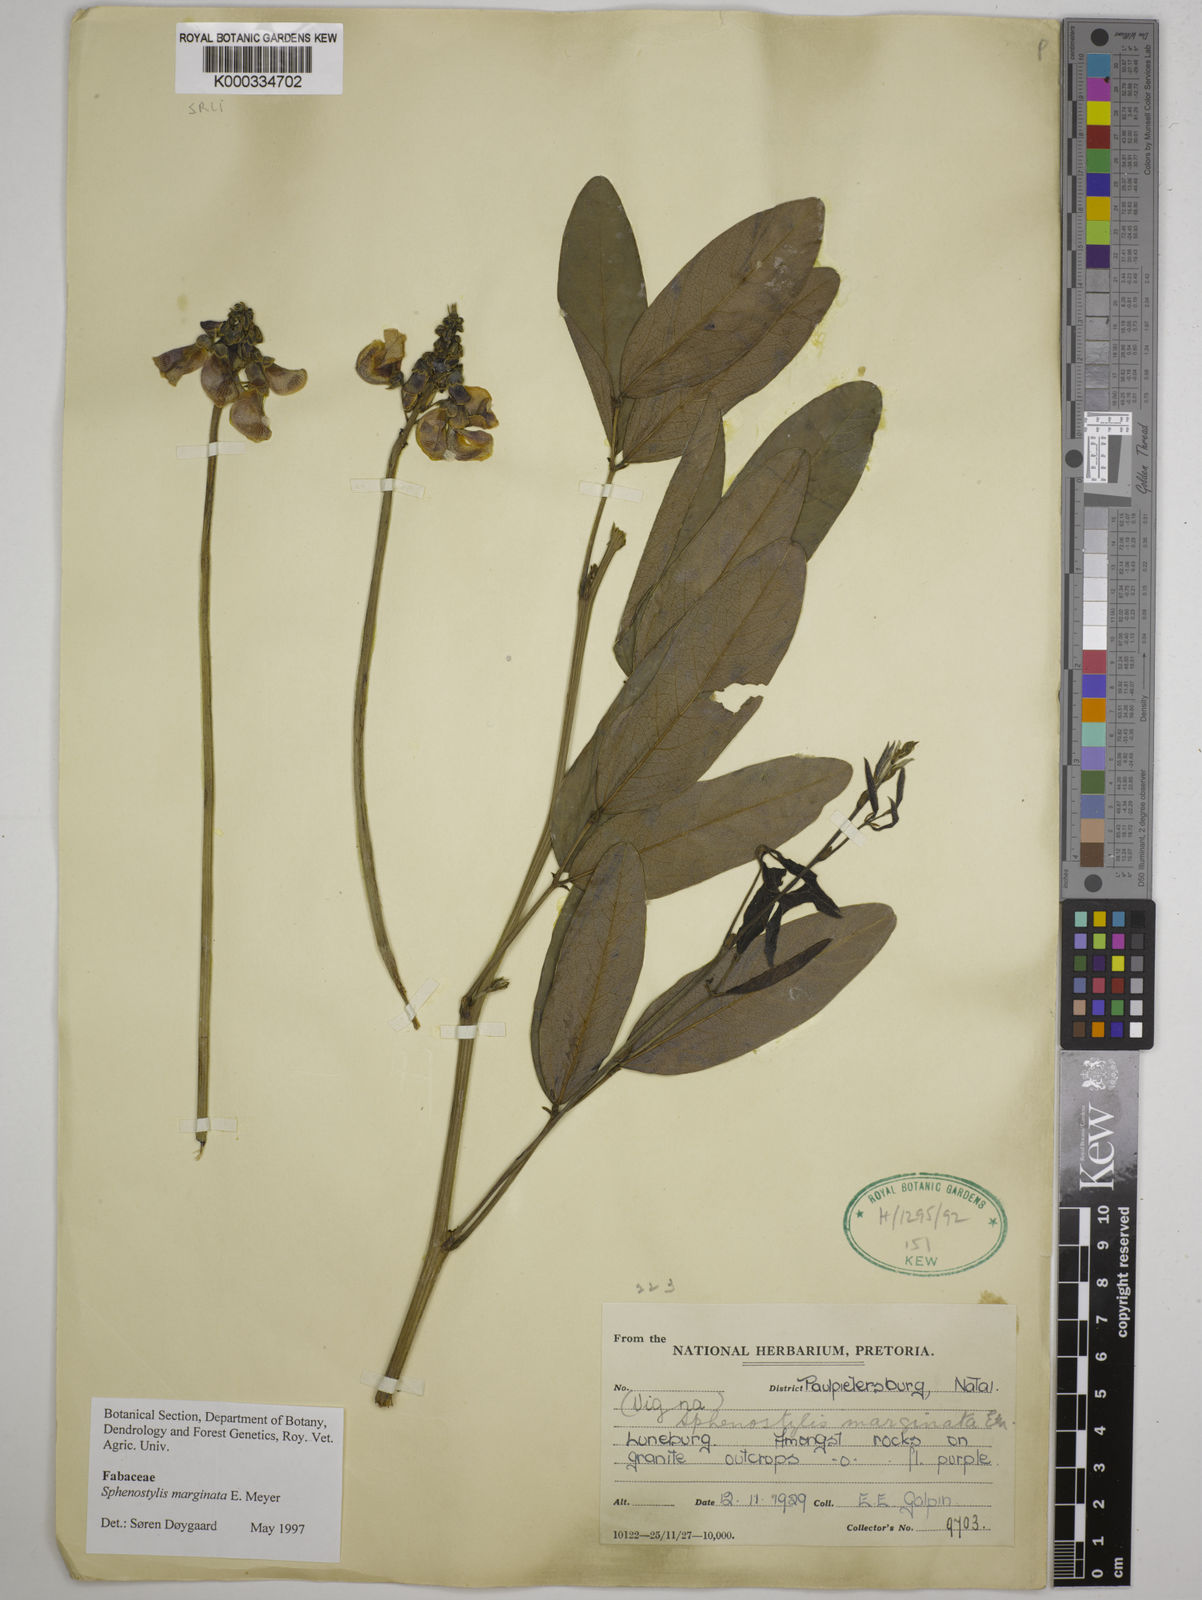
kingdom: Plantae
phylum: Tracheophyta
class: Magnoliopsida
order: Fabales
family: Fabaceae
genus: Sphenostylis
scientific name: Sphenostylis marginata
